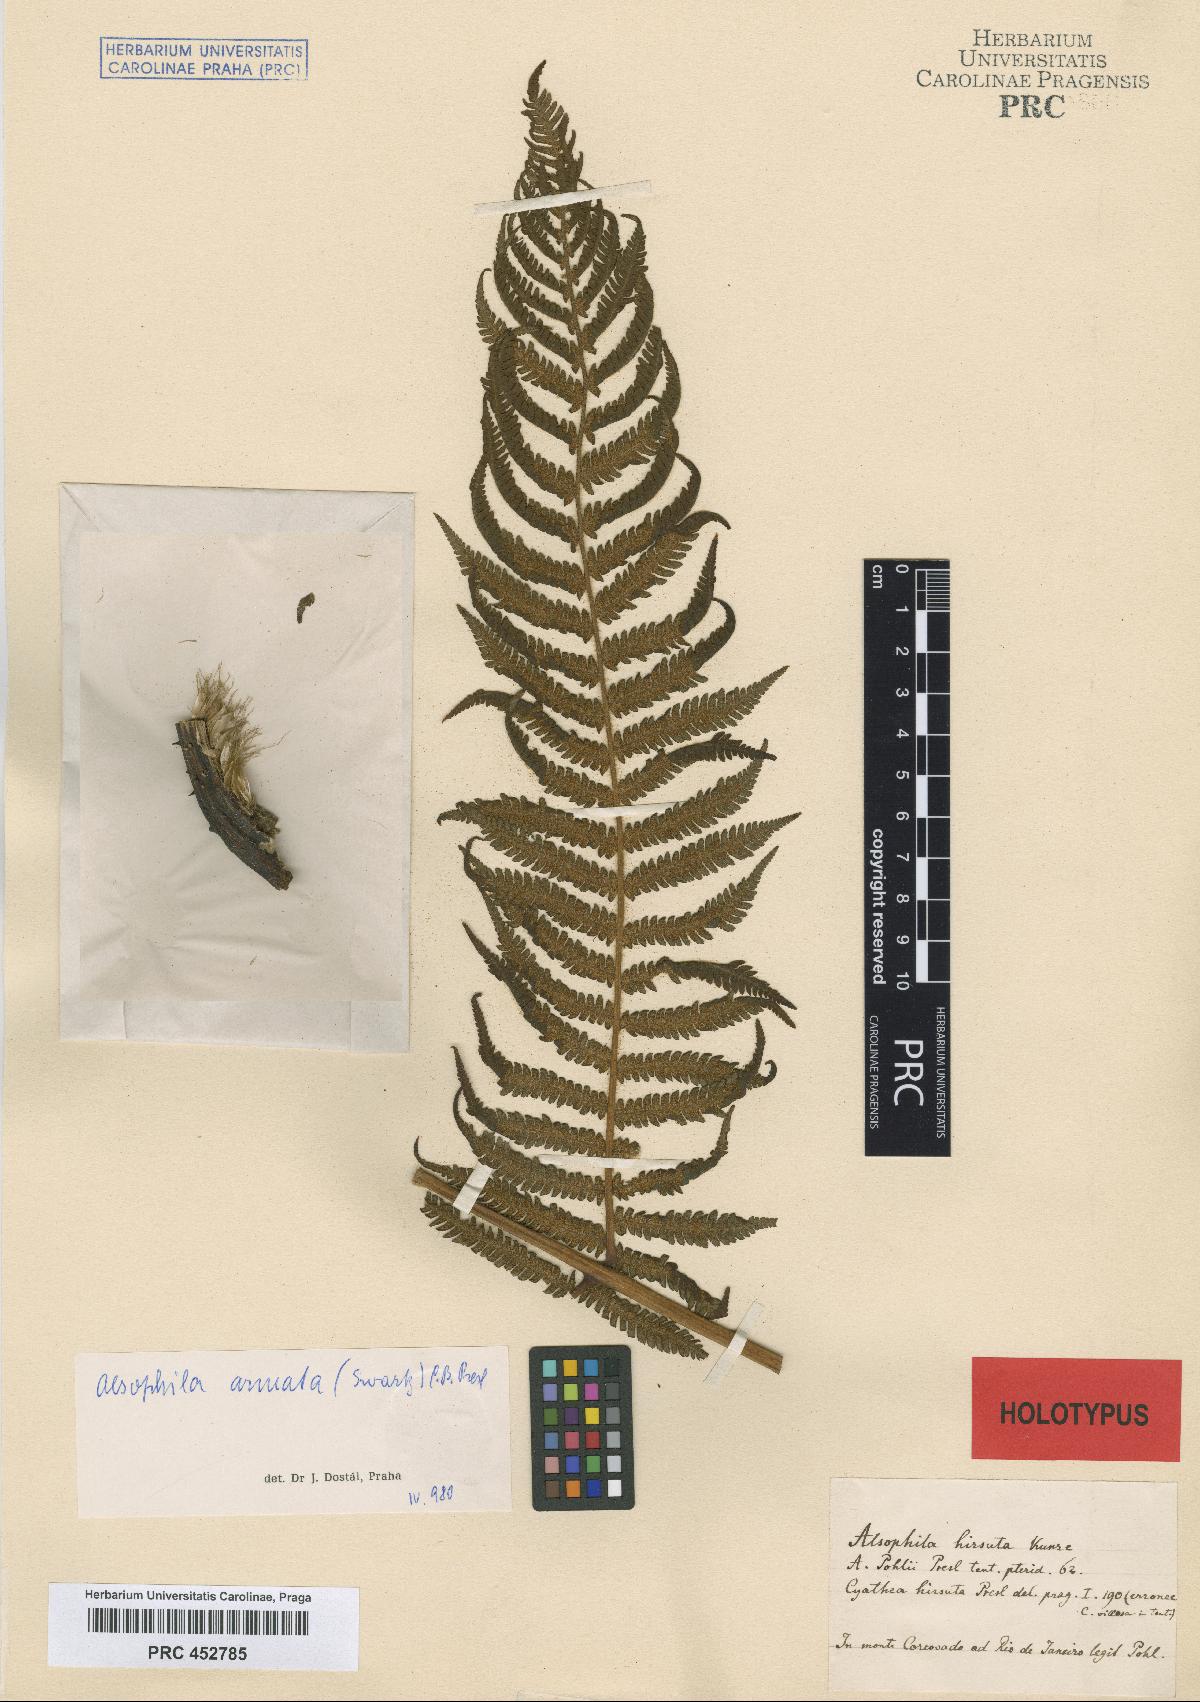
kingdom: Plantae
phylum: Tracheophyta
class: Polypodiopsida
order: Cyatheales
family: Cyatheaceae
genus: Cyathea
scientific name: Cyathea hirsuta
